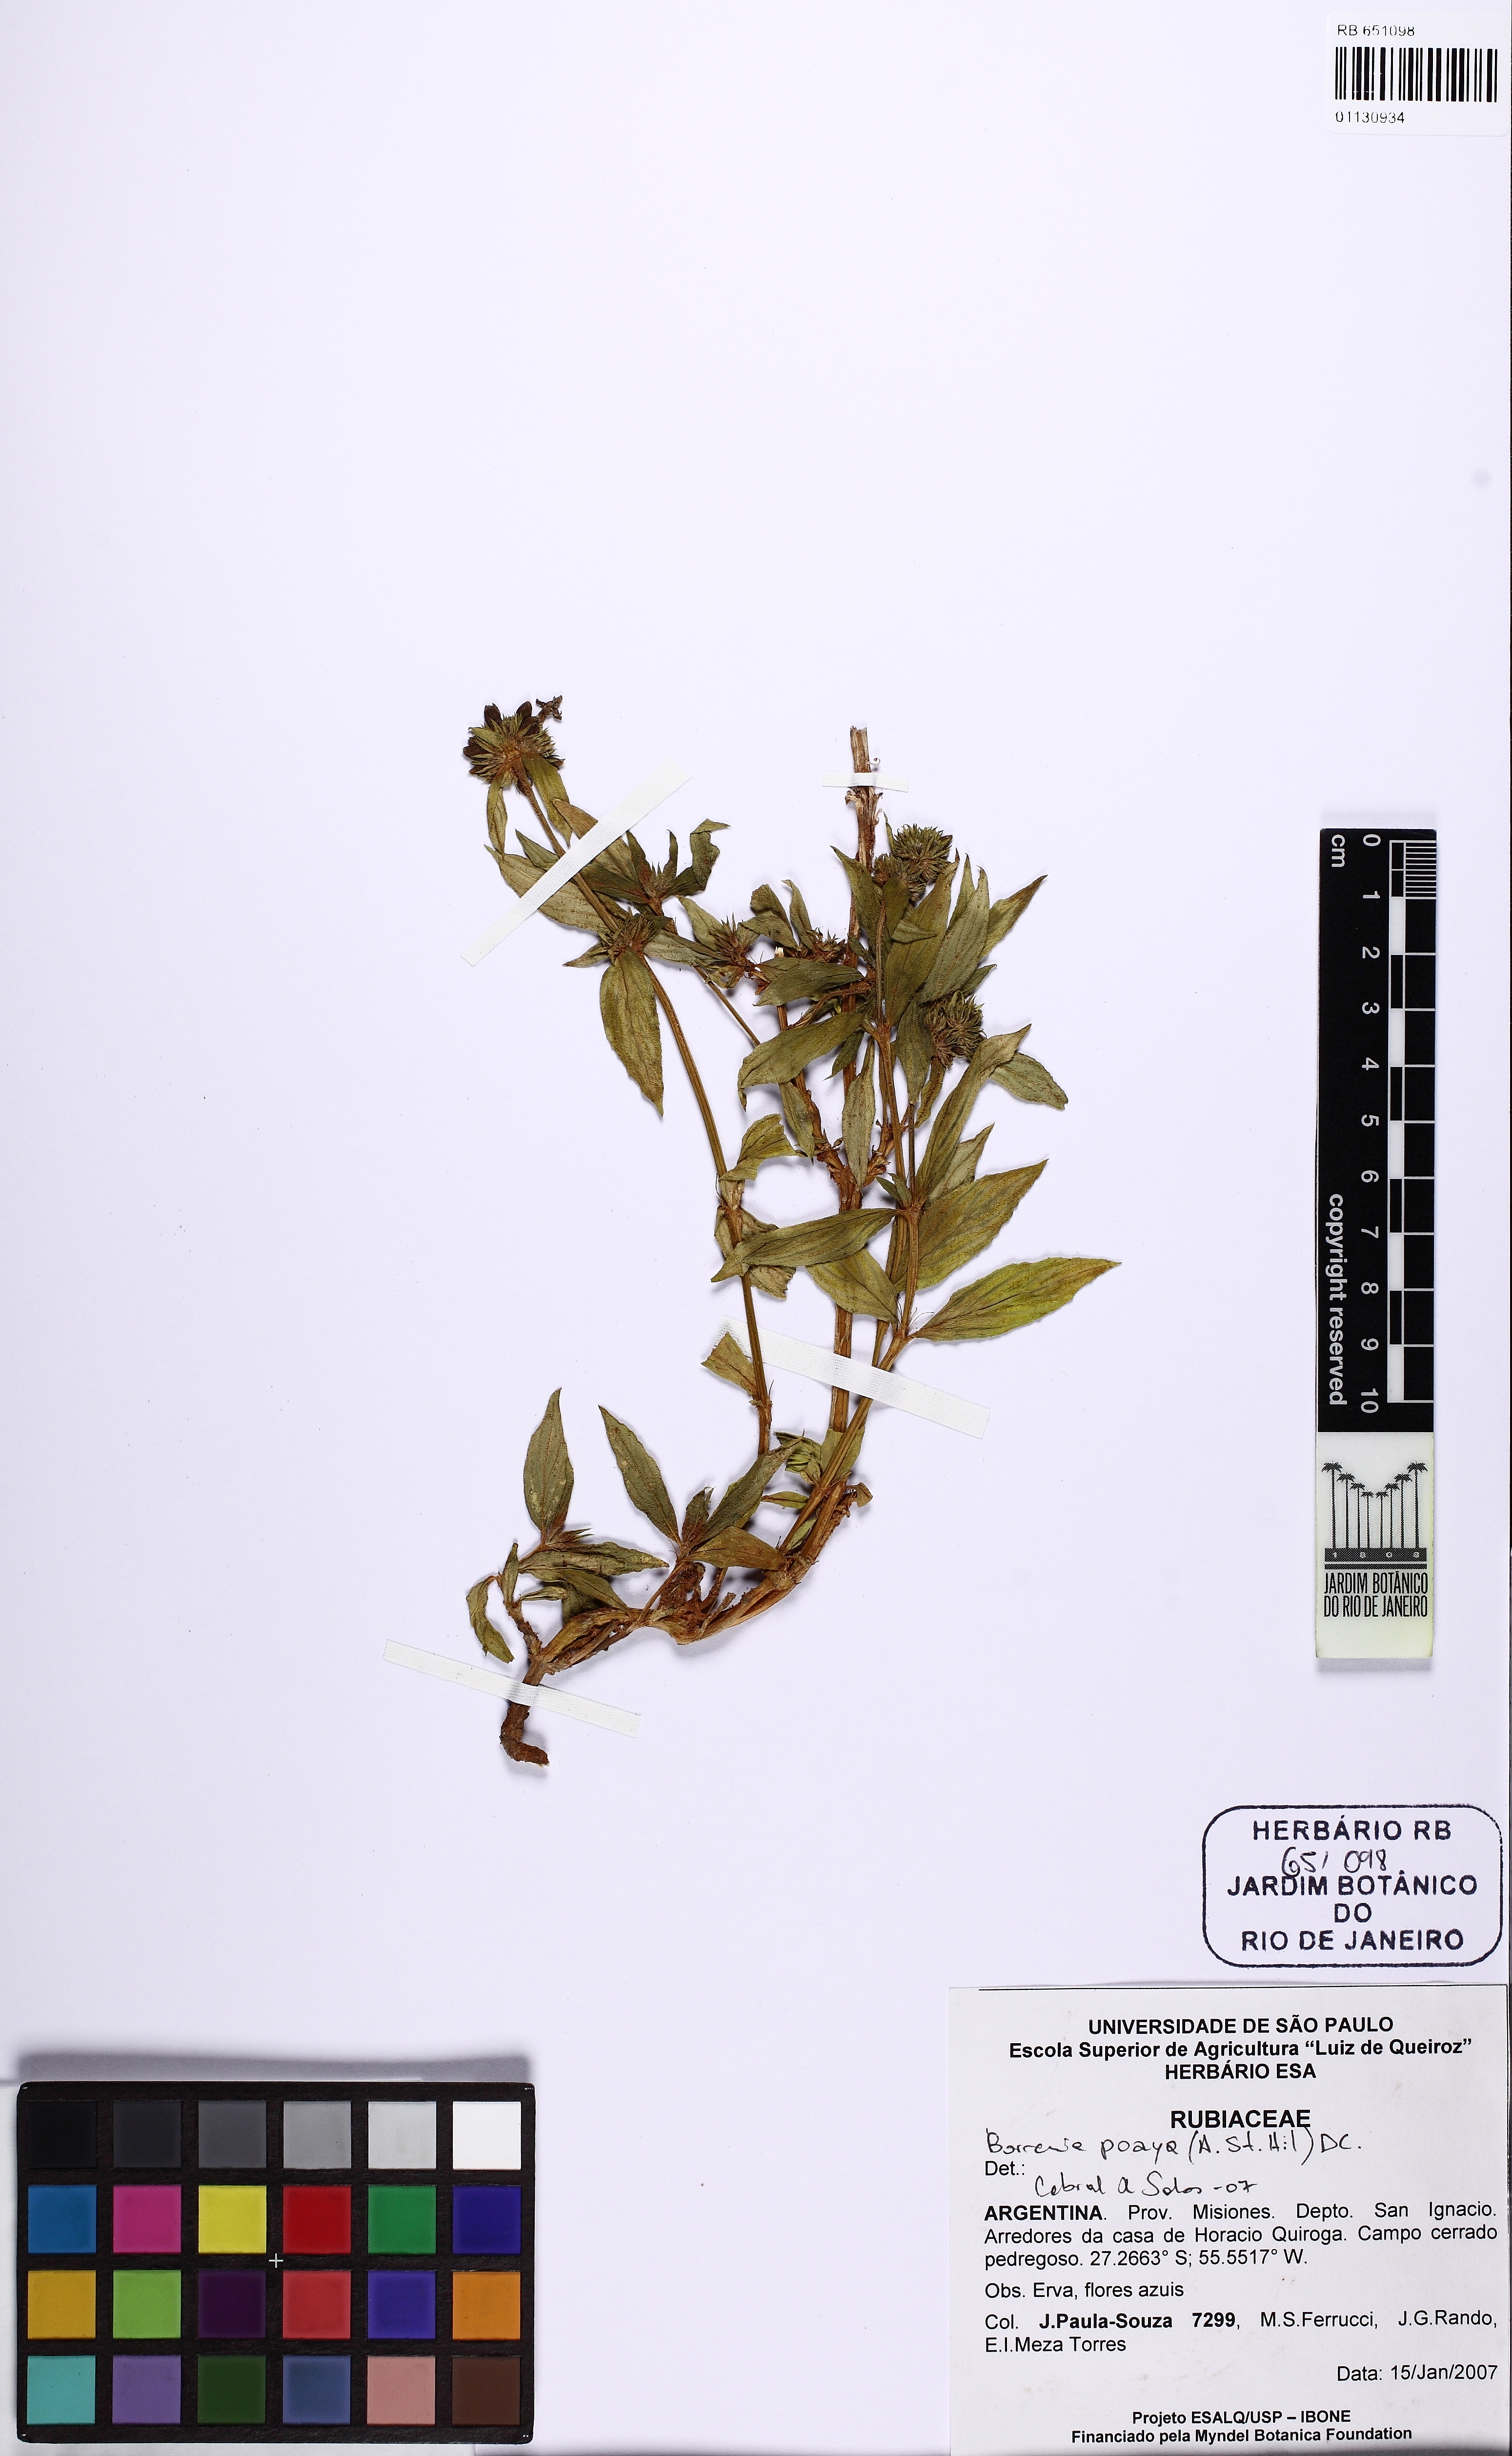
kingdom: Plantae
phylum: Tracheophyta
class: Magnoliopsida
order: Gentianales
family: Rubiaceae
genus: Spermacoce
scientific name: Spermacoce poaya
